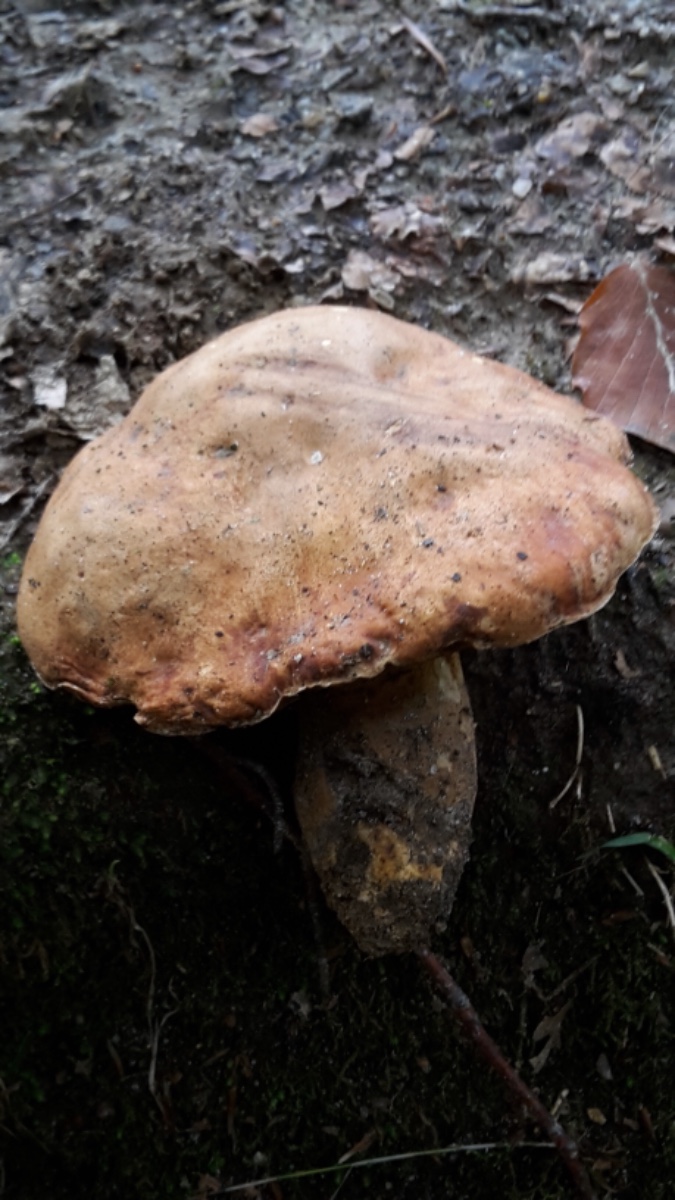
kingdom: Fungi
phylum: Basidiomycota
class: Agaricomycetes
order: Boletales
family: Boletaceae
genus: Butyriboletus
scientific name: Butyriboletus appendiculatus
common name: tenstokket rørhat
